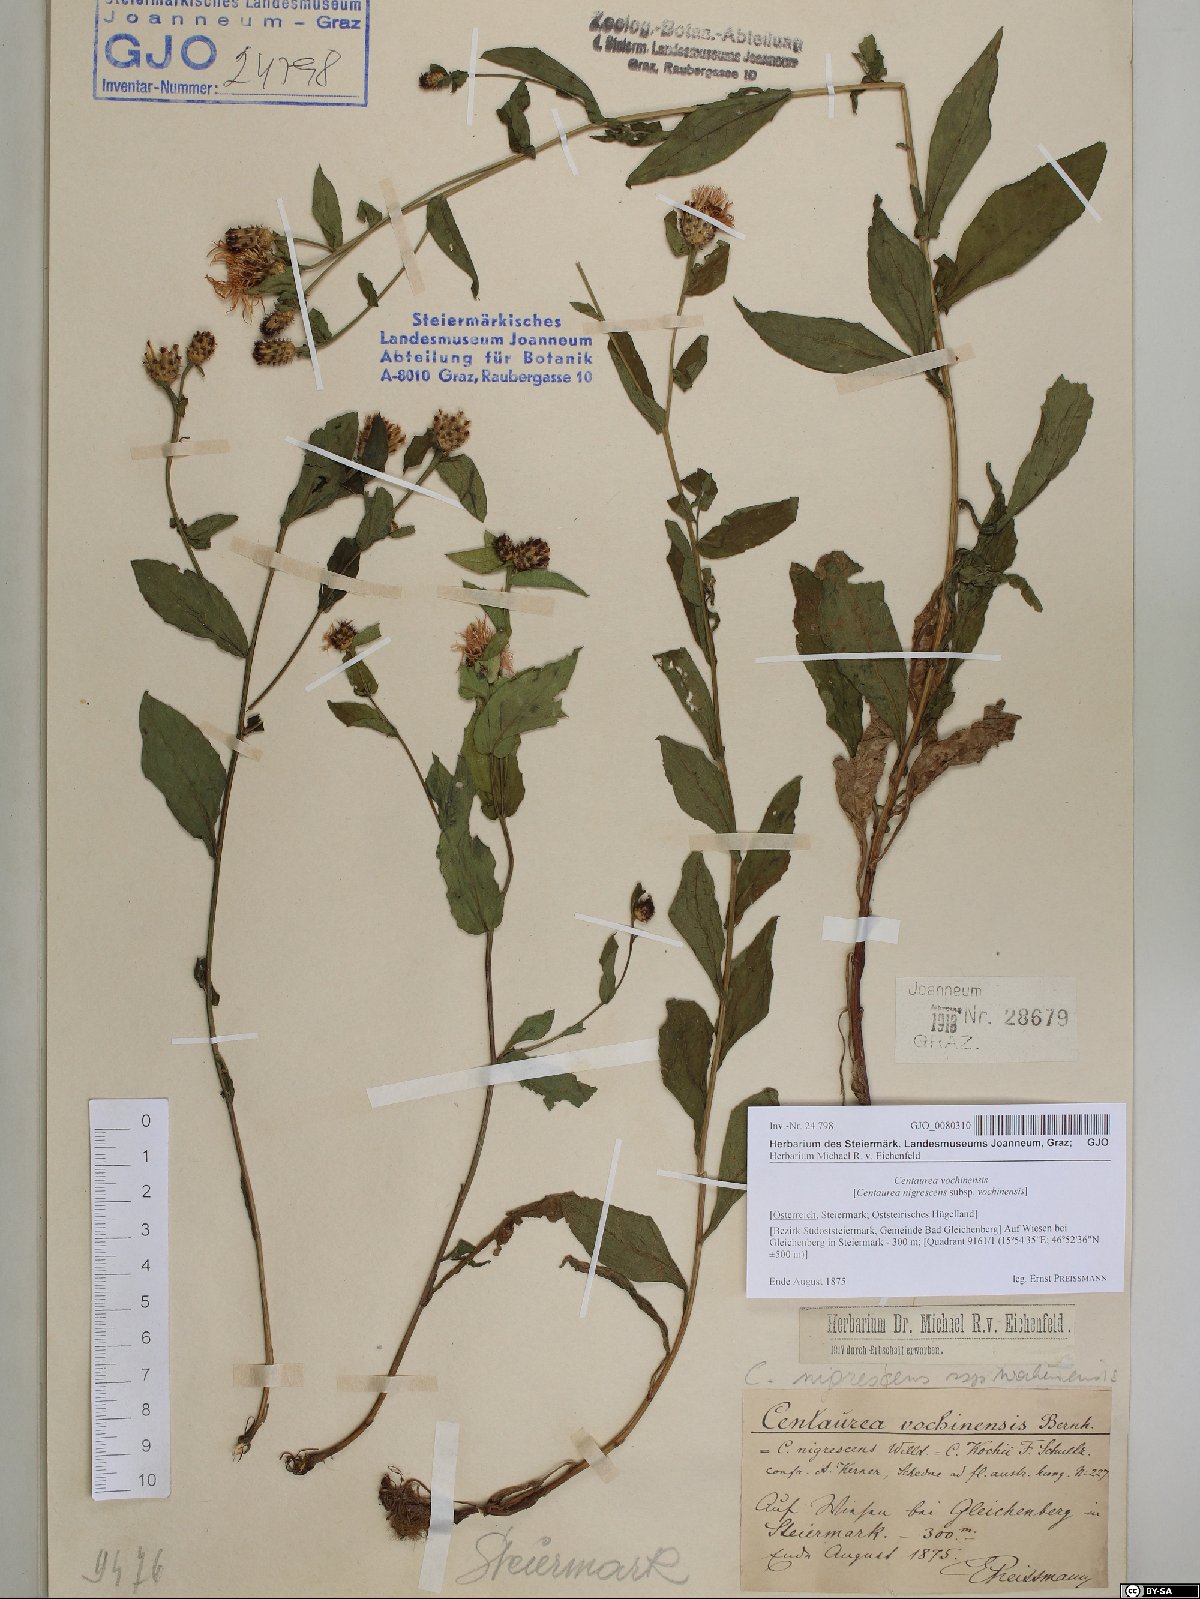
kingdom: Plantae
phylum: Tracheophyta
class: Magnoliopsida
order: Asterales
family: Asteraceae
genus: Centaurea
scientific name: Centaurea carniolica
